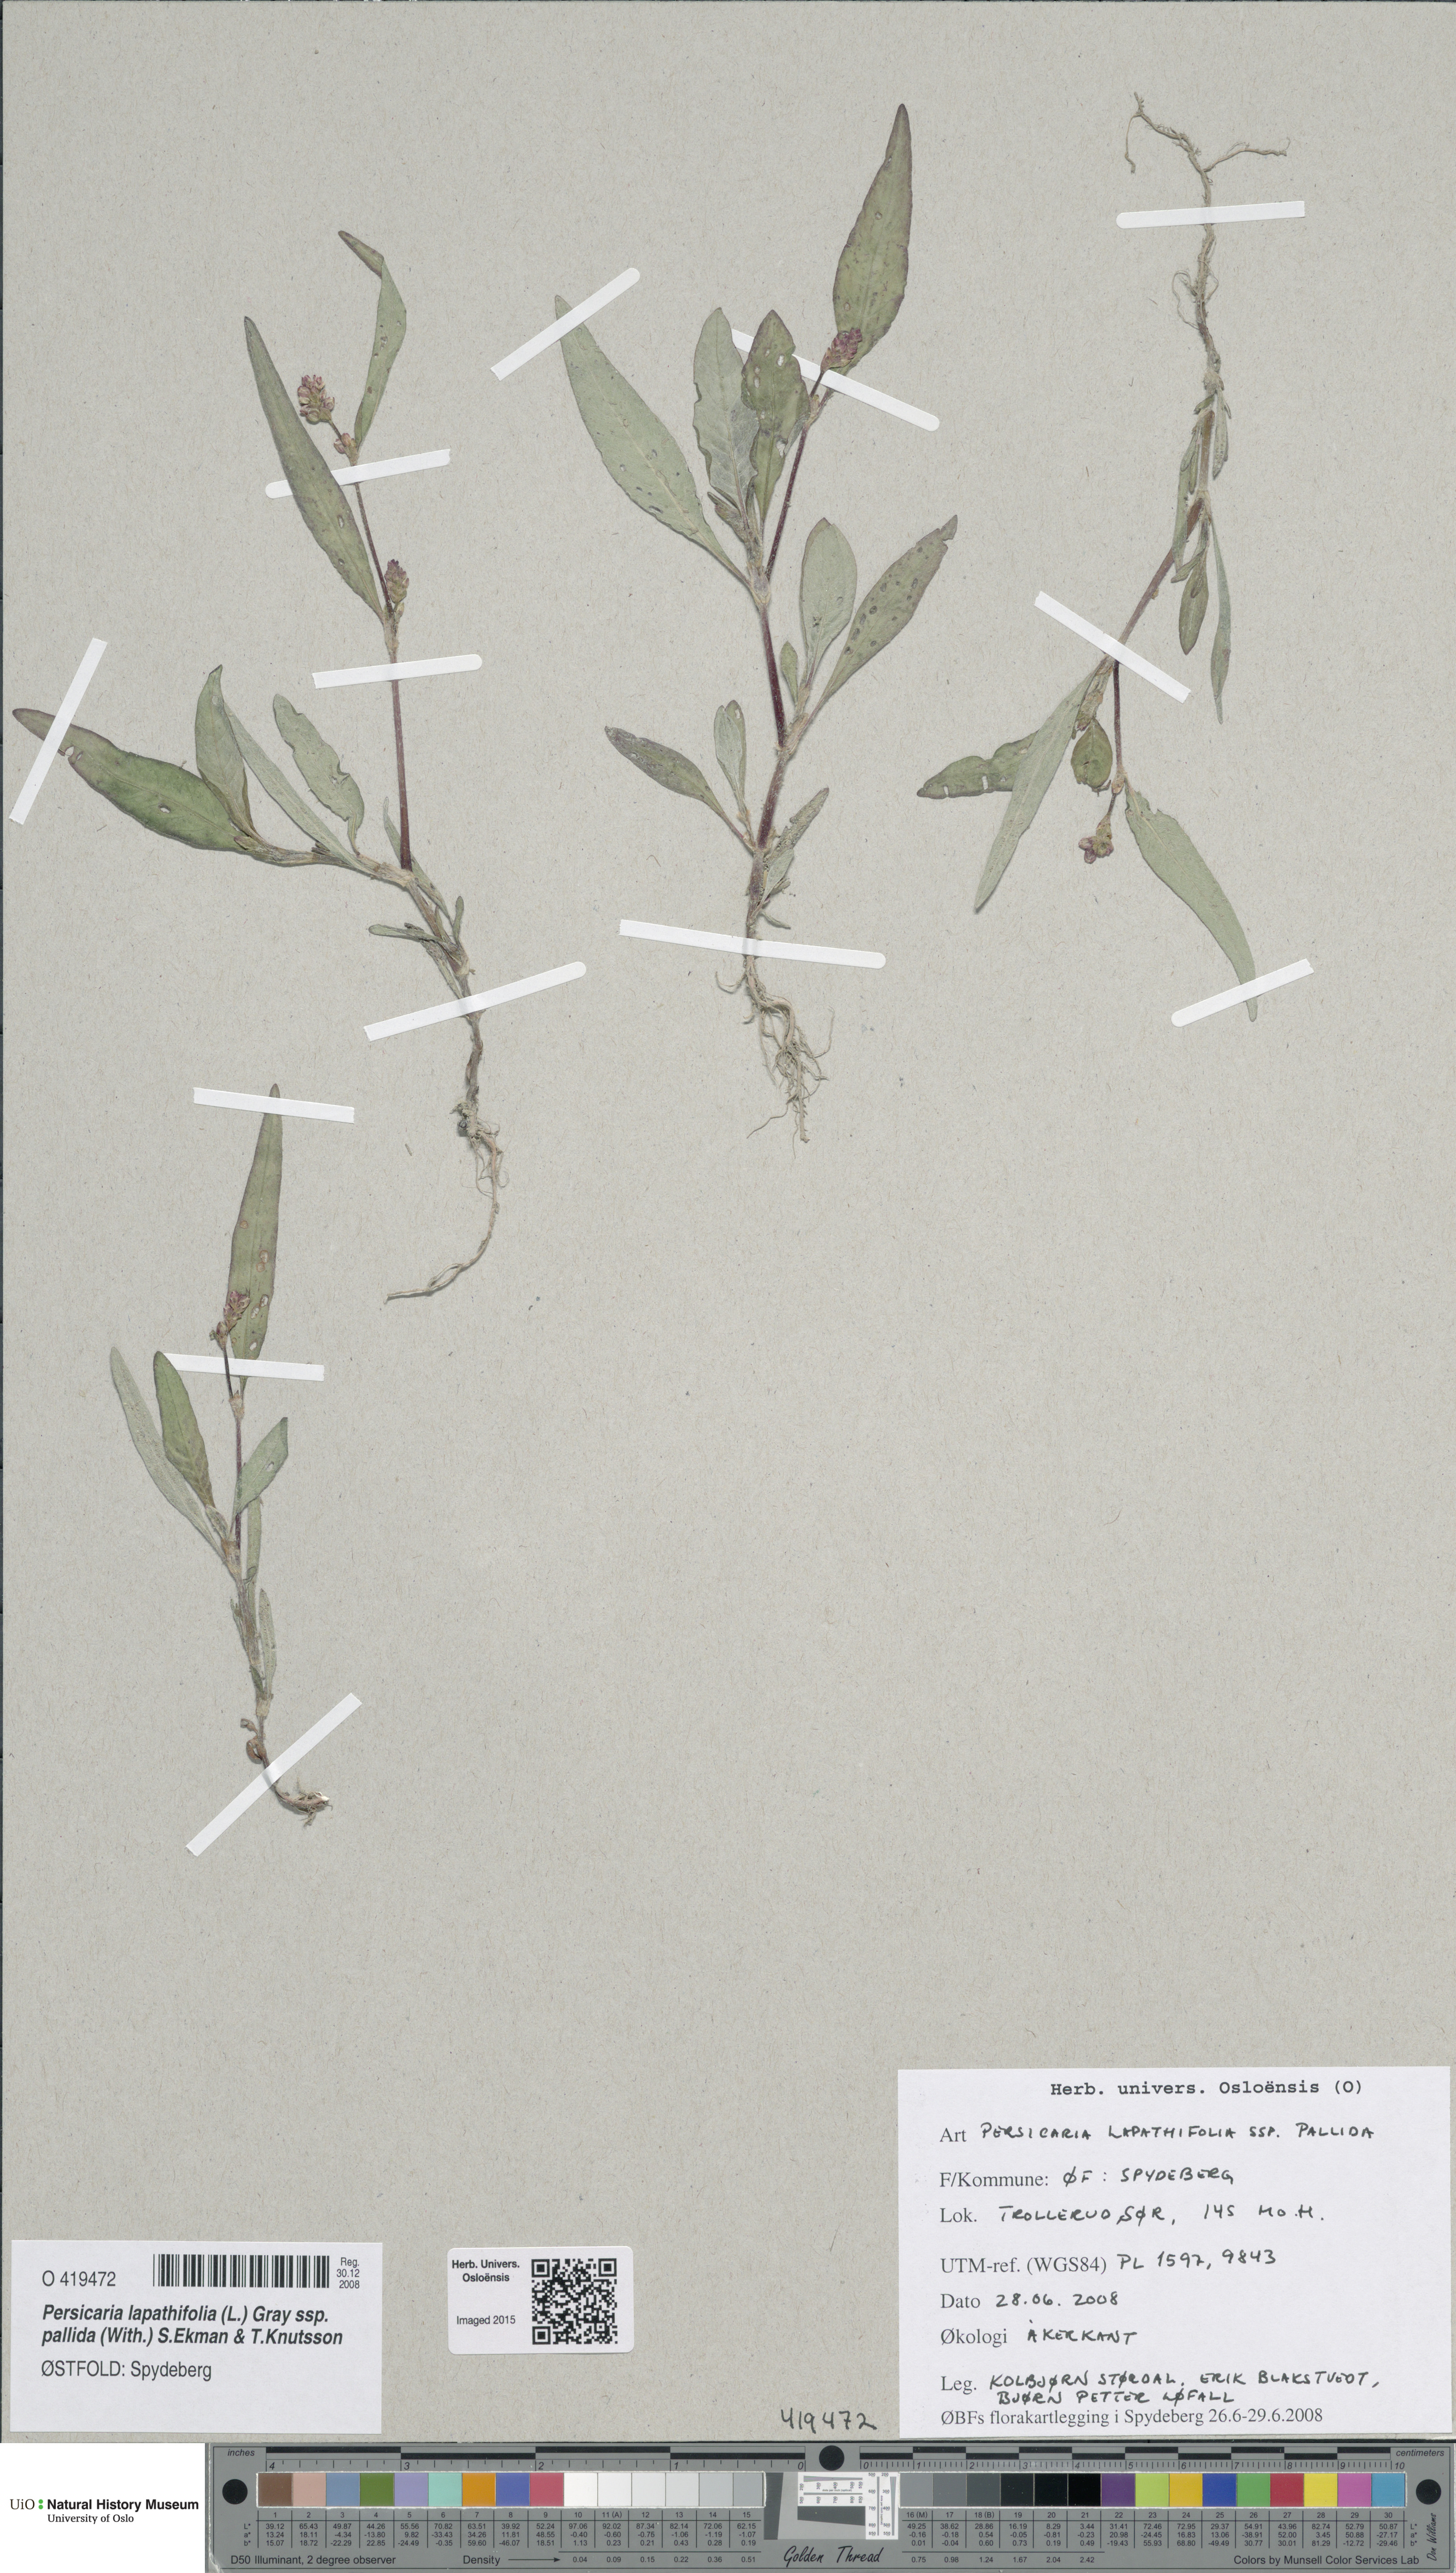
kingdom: Plantae
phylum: Tracheophyta
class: Magnoliopsida
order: Caryophyllales
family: Polygonaceae
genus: Persicaria
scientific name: Persicaria lapathifolia
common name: Curlytop knotweed
